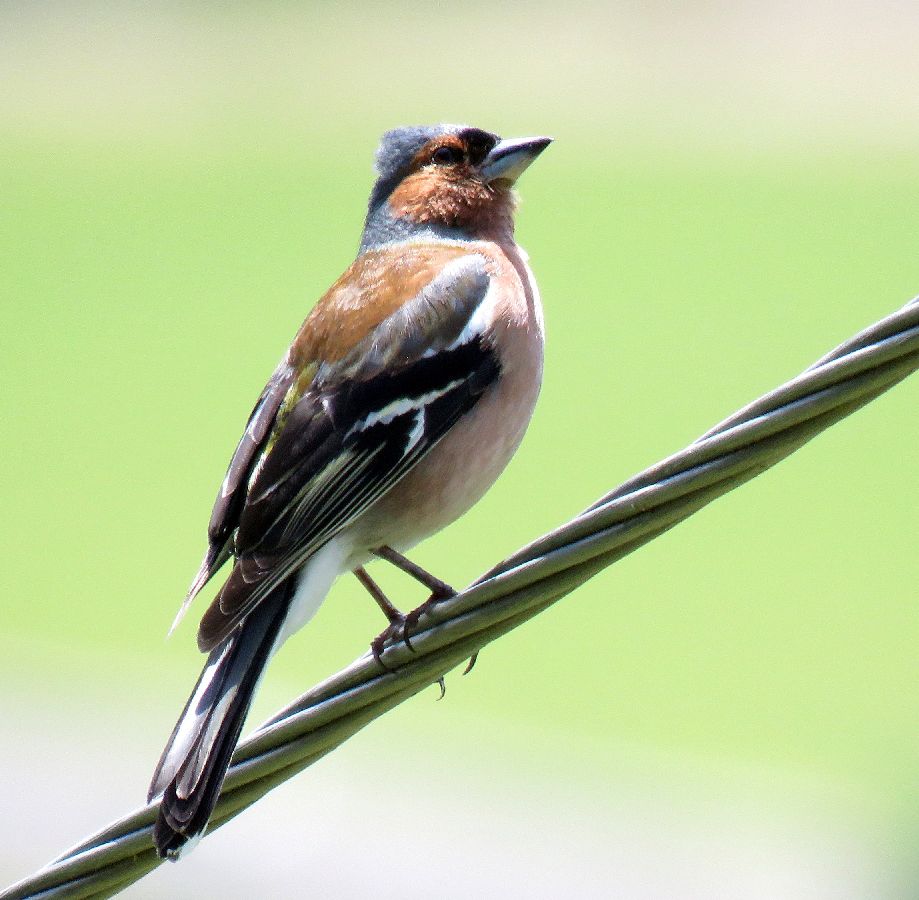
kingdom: Animalia
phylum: Chordata
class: Aves
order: Passeriformes
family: Fringillidae
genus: Fringilla
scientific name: Fringilla coelebs
